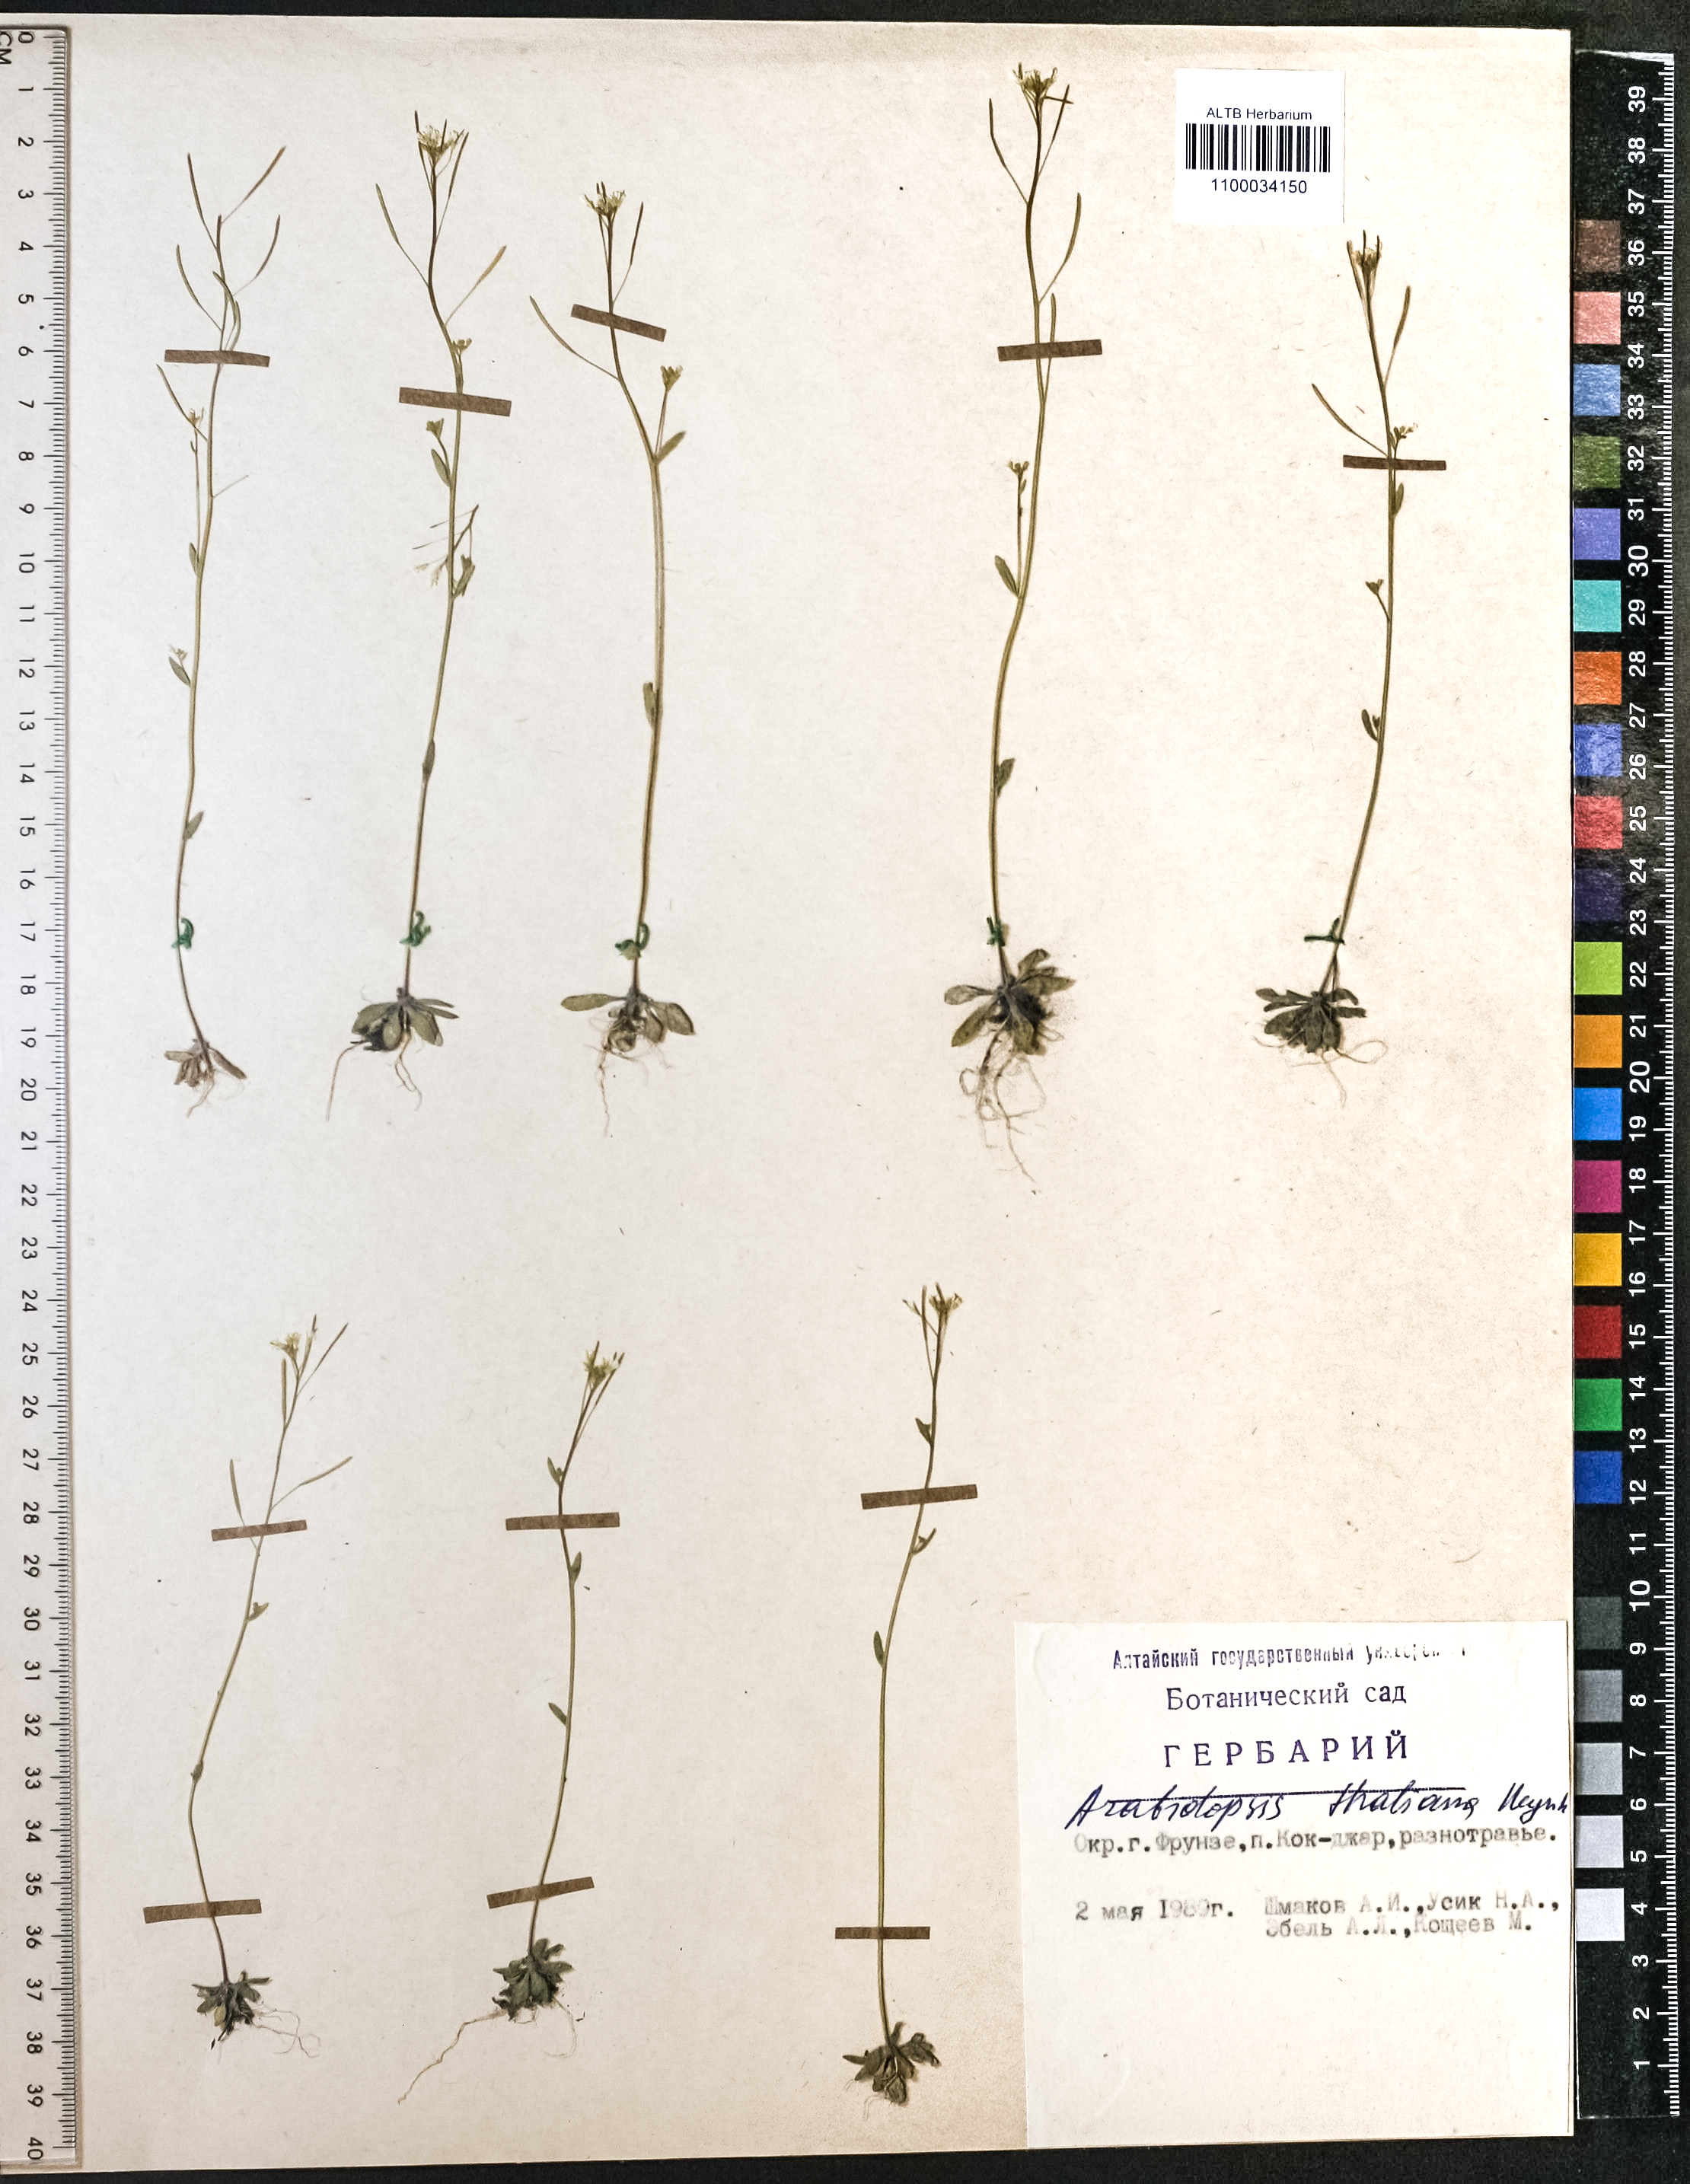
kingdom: Plantae
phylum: Tracheophyta
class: Magnoliopsida
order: Brassicales
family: Brassicaceae
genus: Arabidopsis
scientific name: Arabidopsis thaliana
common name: Thale cress
